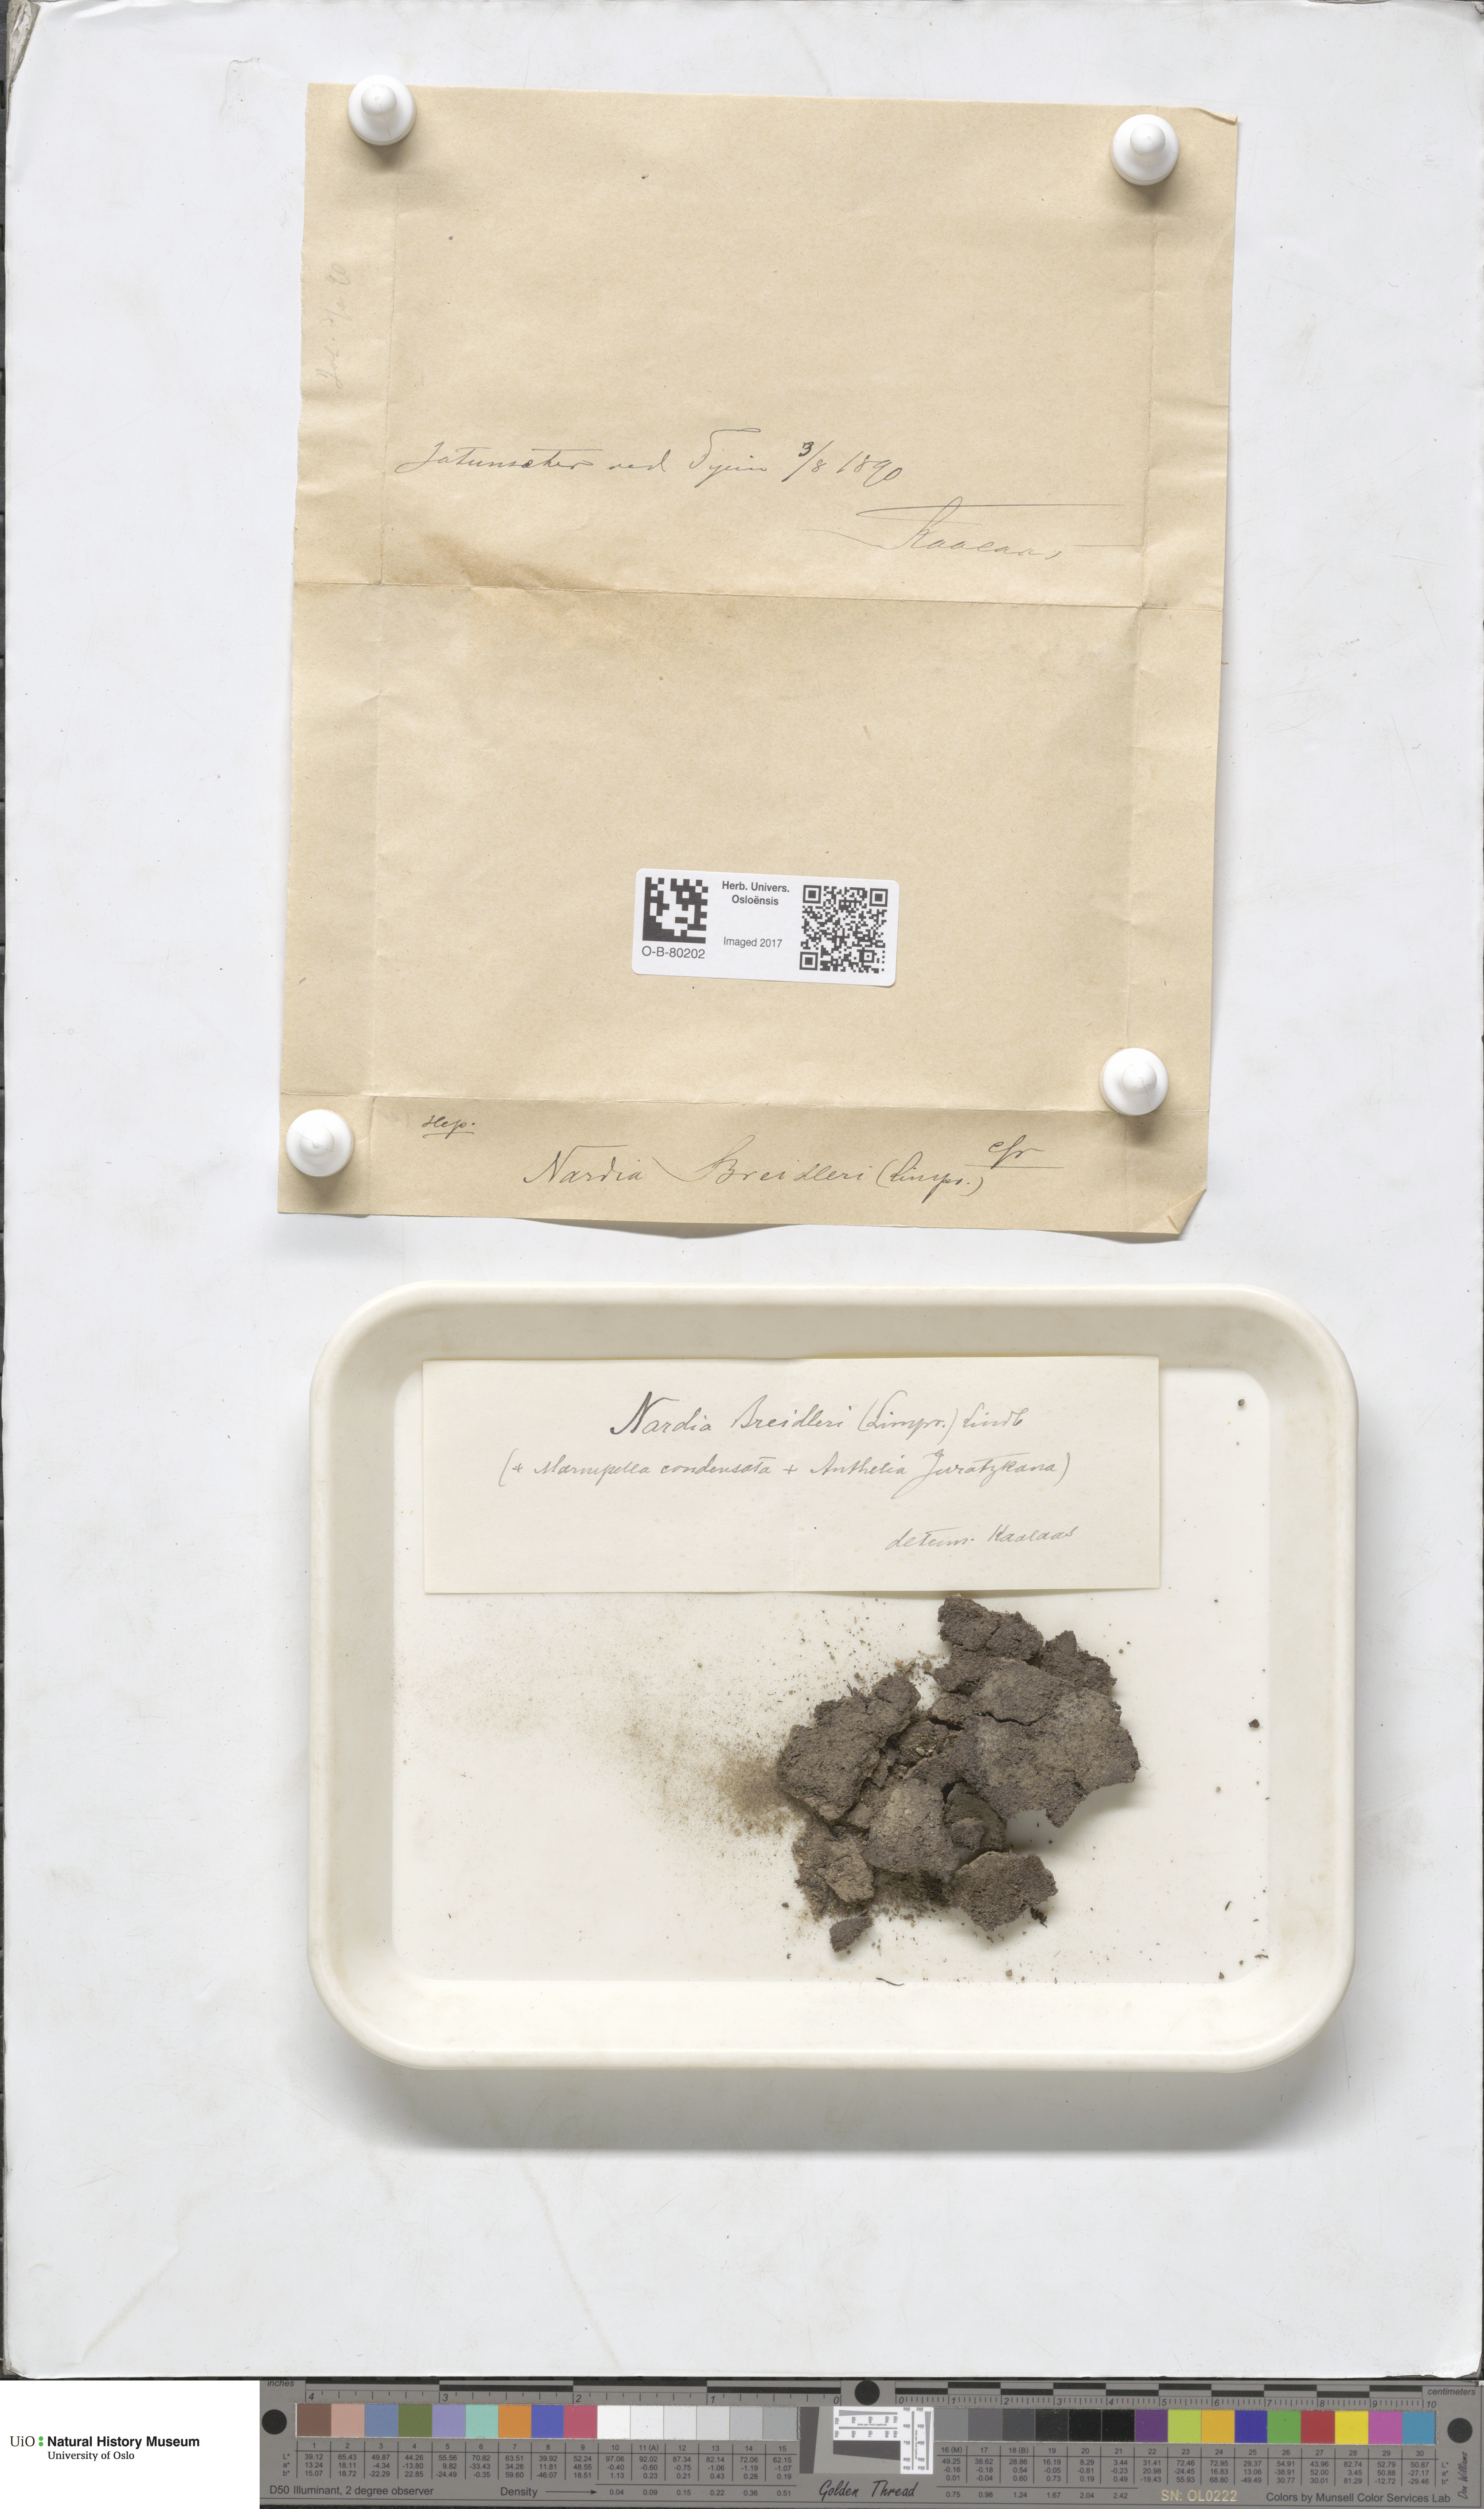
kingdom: Plantae
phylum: Marchantiophyta
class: Jungermanniopsida
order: Jungermanniales
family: Gymnomitriaceae
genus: Nardia
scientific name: Nardia breidleri
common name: Book flapwort
